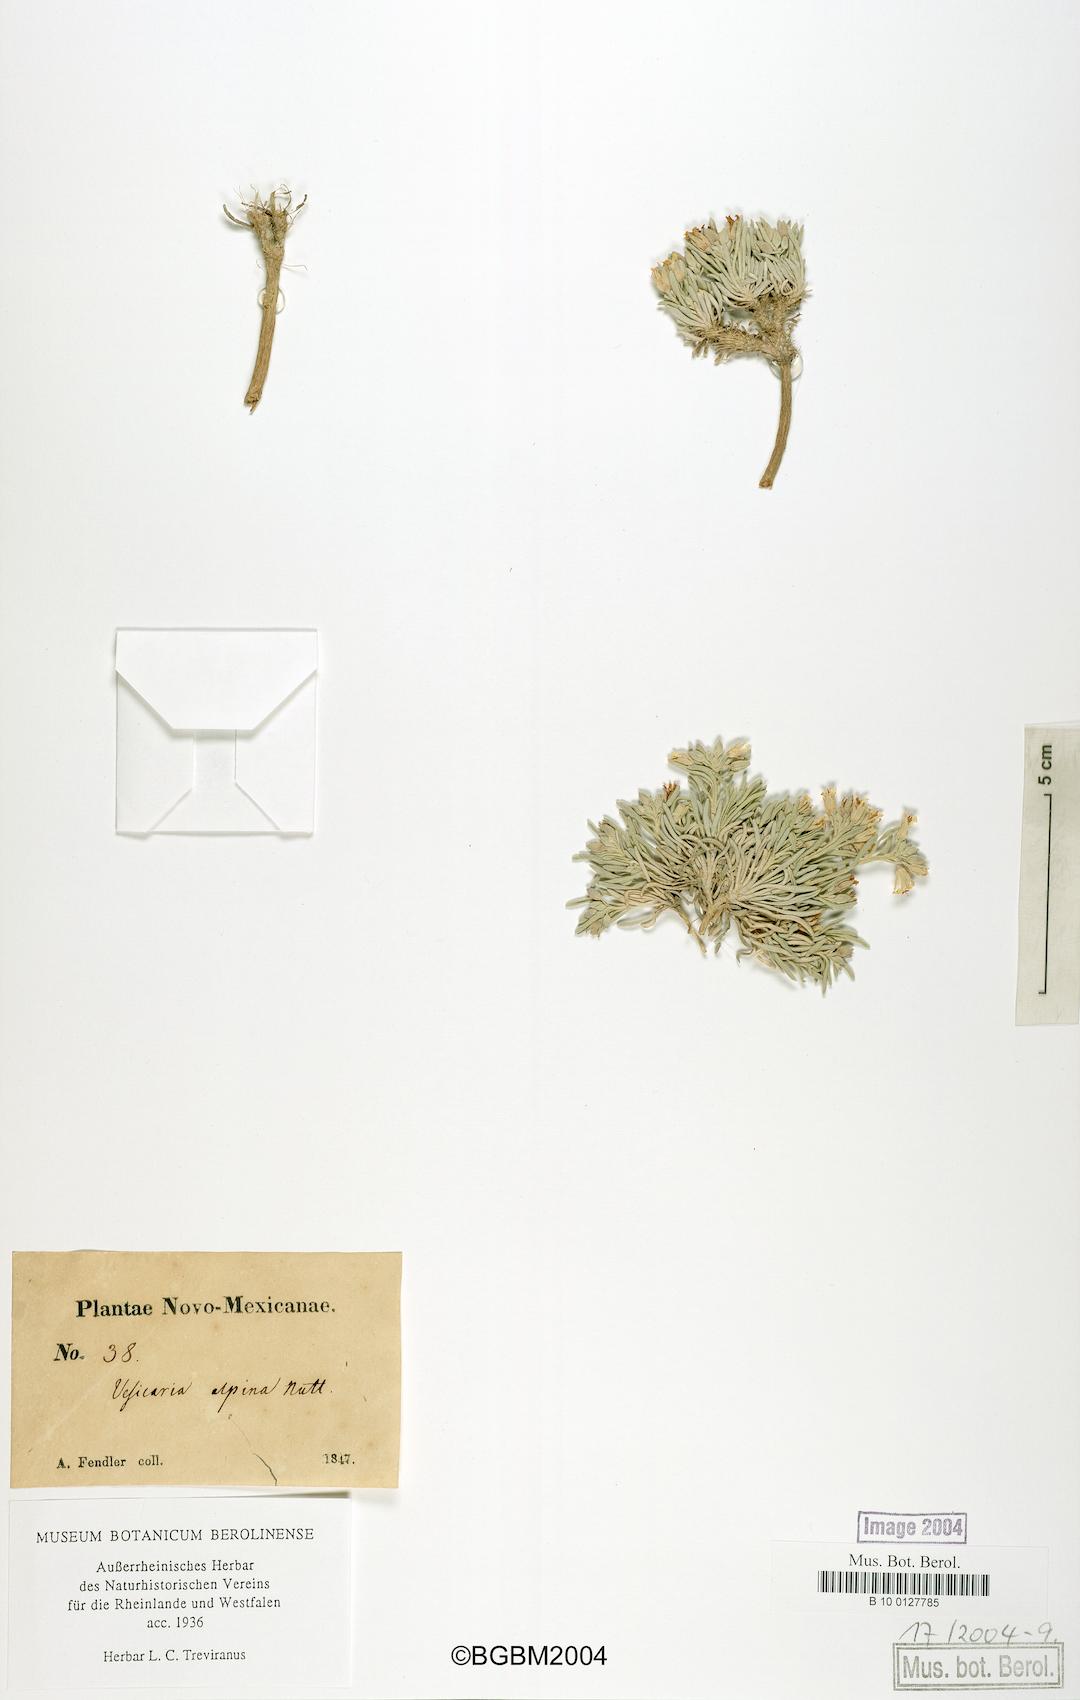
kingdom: Plantae
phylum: Tracheophyta
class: Magnoliopsida
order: Brassicales
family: Brassicaceae
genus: Physaria
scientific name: Physaria reediana
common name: Rollins's bladderpod
